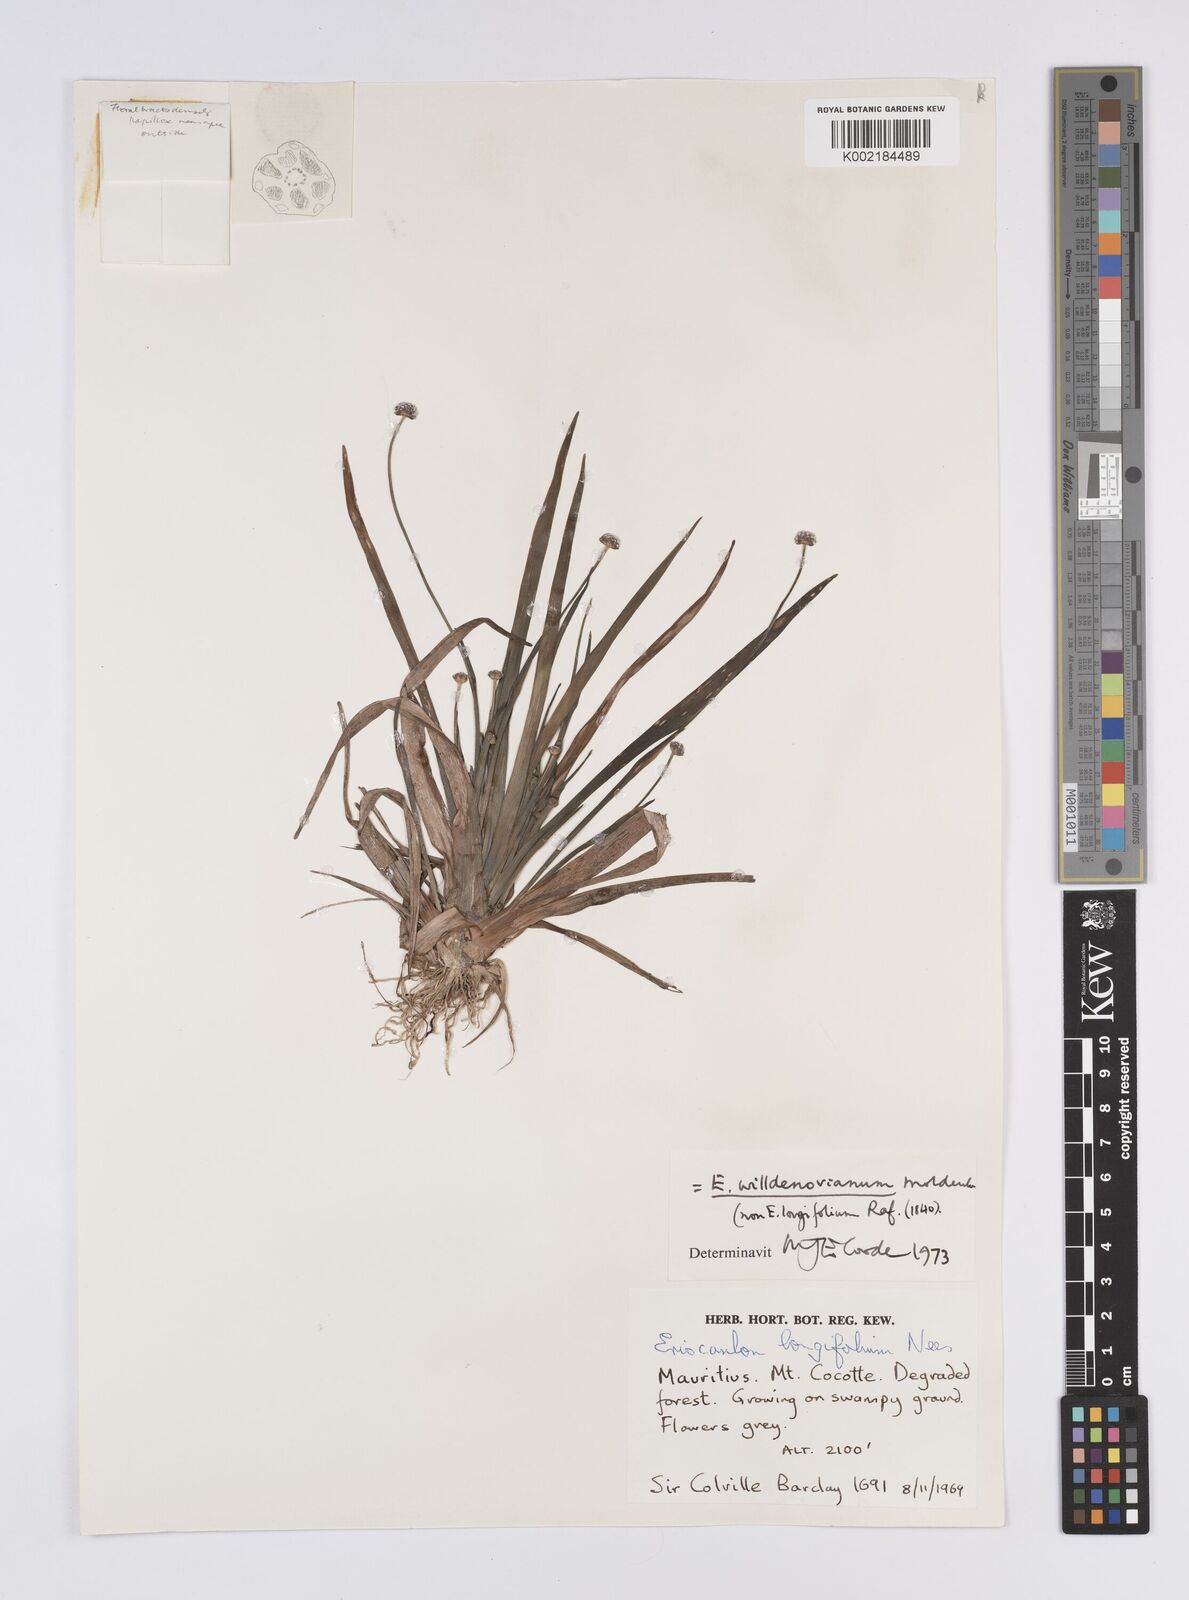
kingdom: Plantae
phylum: Tracheophyta
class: Liliopsida
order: Poales
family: Eriocaulaceae
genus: Eriocaulon
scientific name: Eriocaulon willdenovianum
